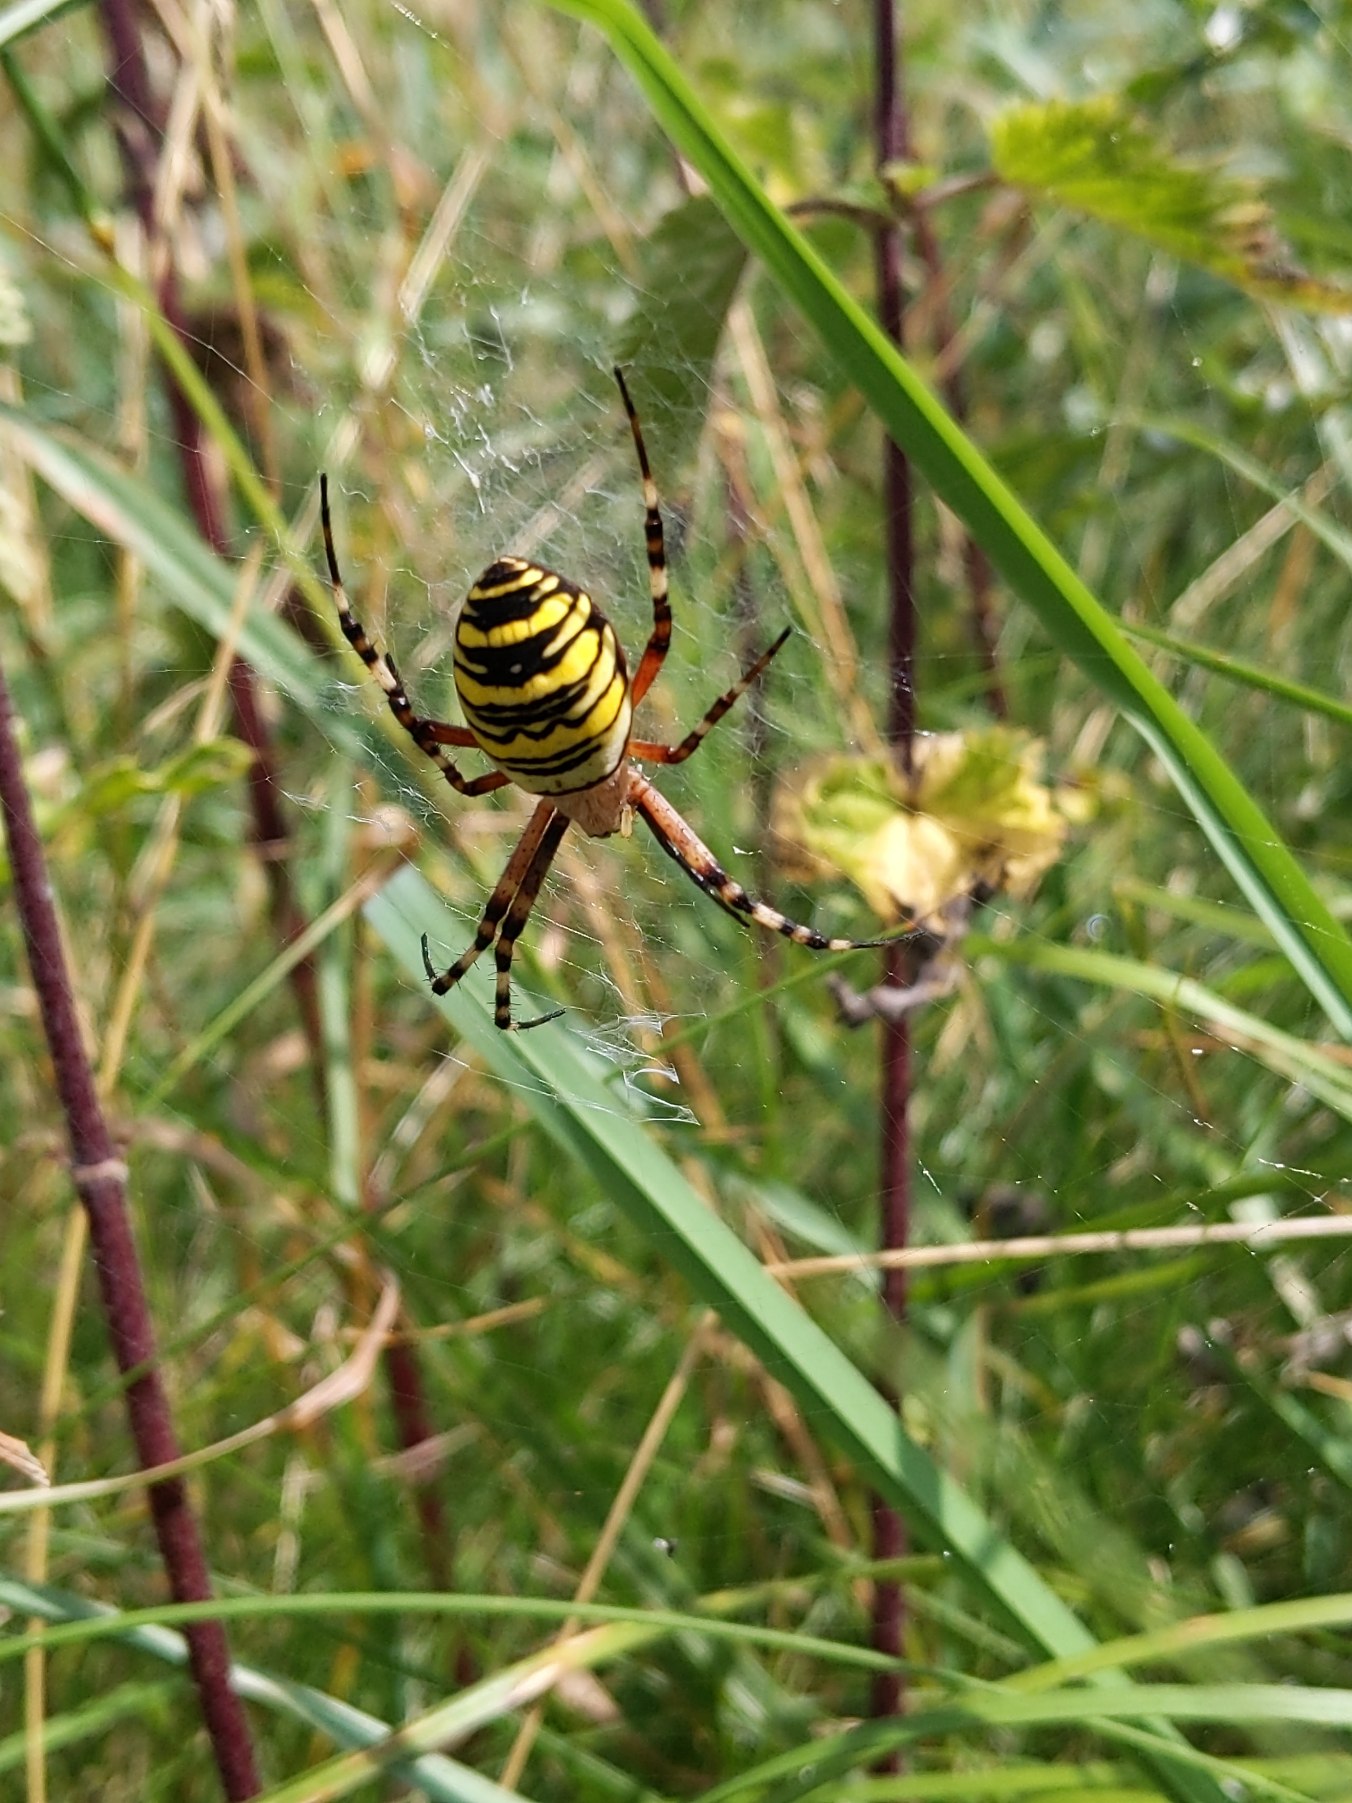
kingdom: Animalia
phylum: Arthropoda
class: Arachnida
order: Araneae
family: Araneidae
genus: Argiope
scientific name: Argiope bruennichi
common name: Hvepseedderkop
